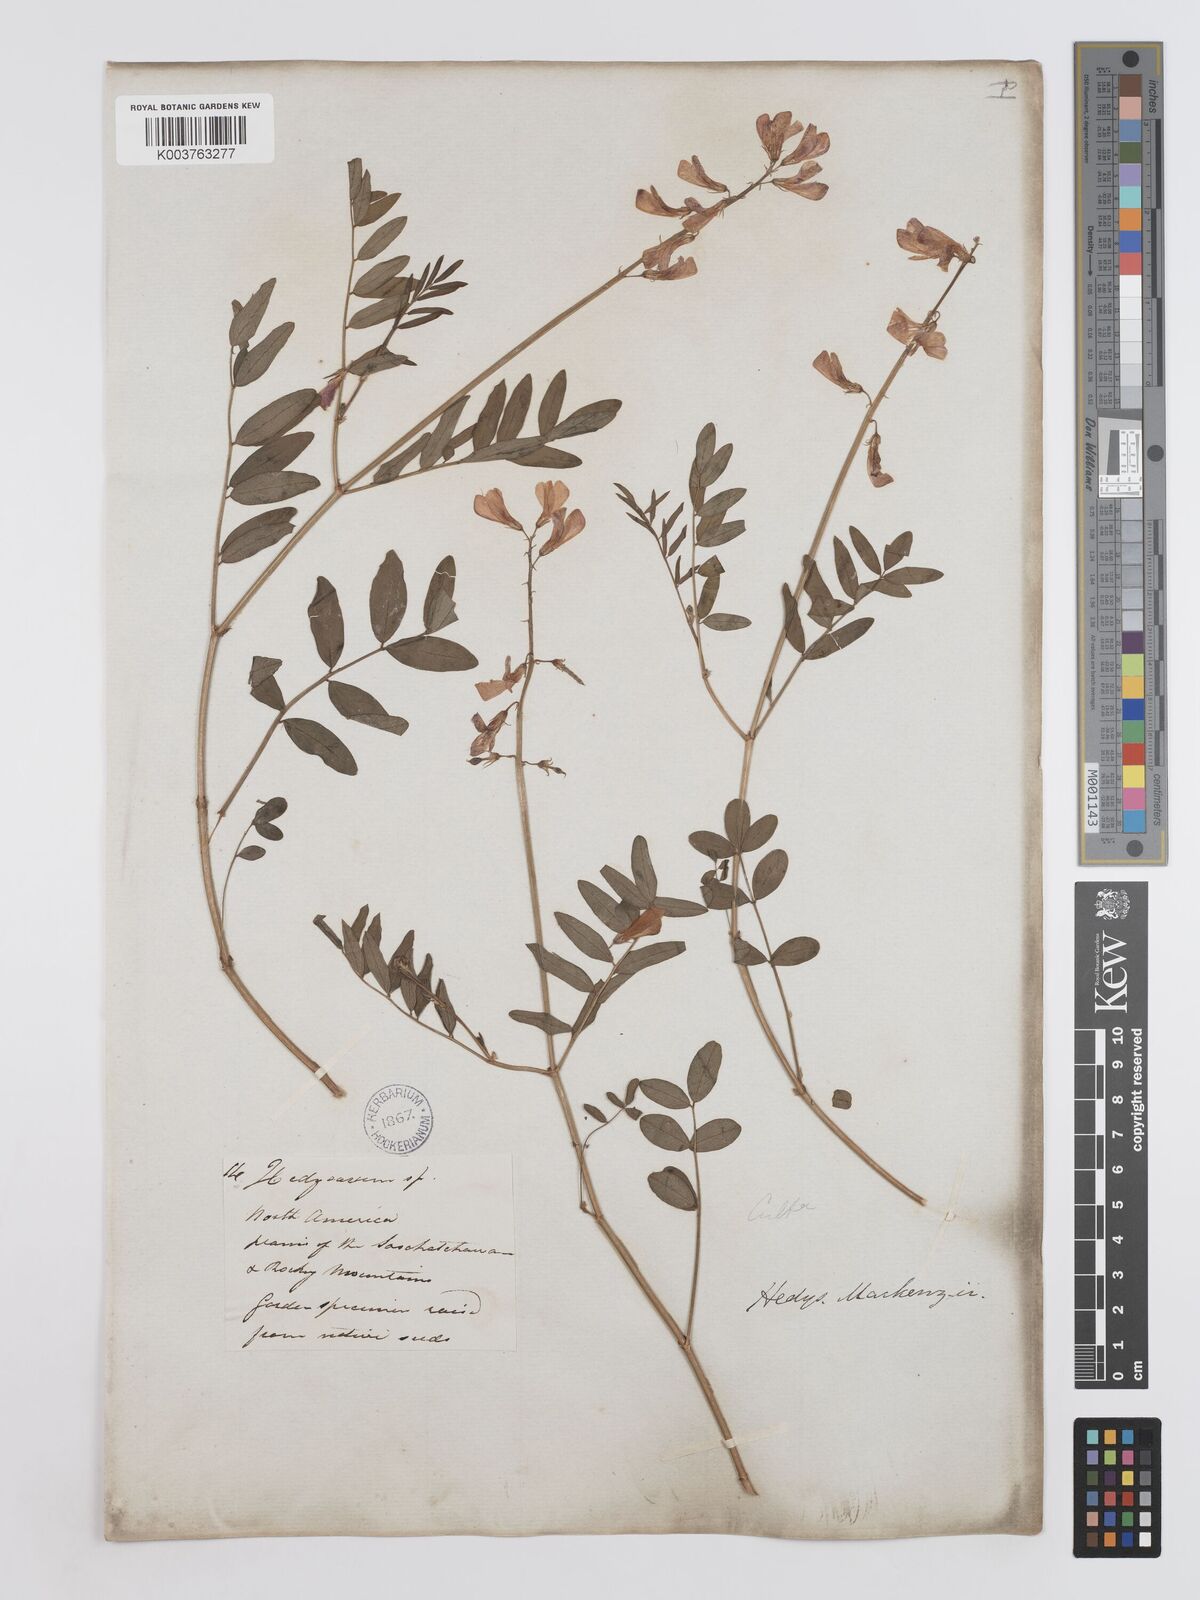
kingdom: Plantae
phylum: Tracheophyta
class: Magnoliopsida
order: Fabales
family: Fabaceae
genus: Hedysarum
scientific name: Hedysarum boreale
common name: Northern sweet-vetch
